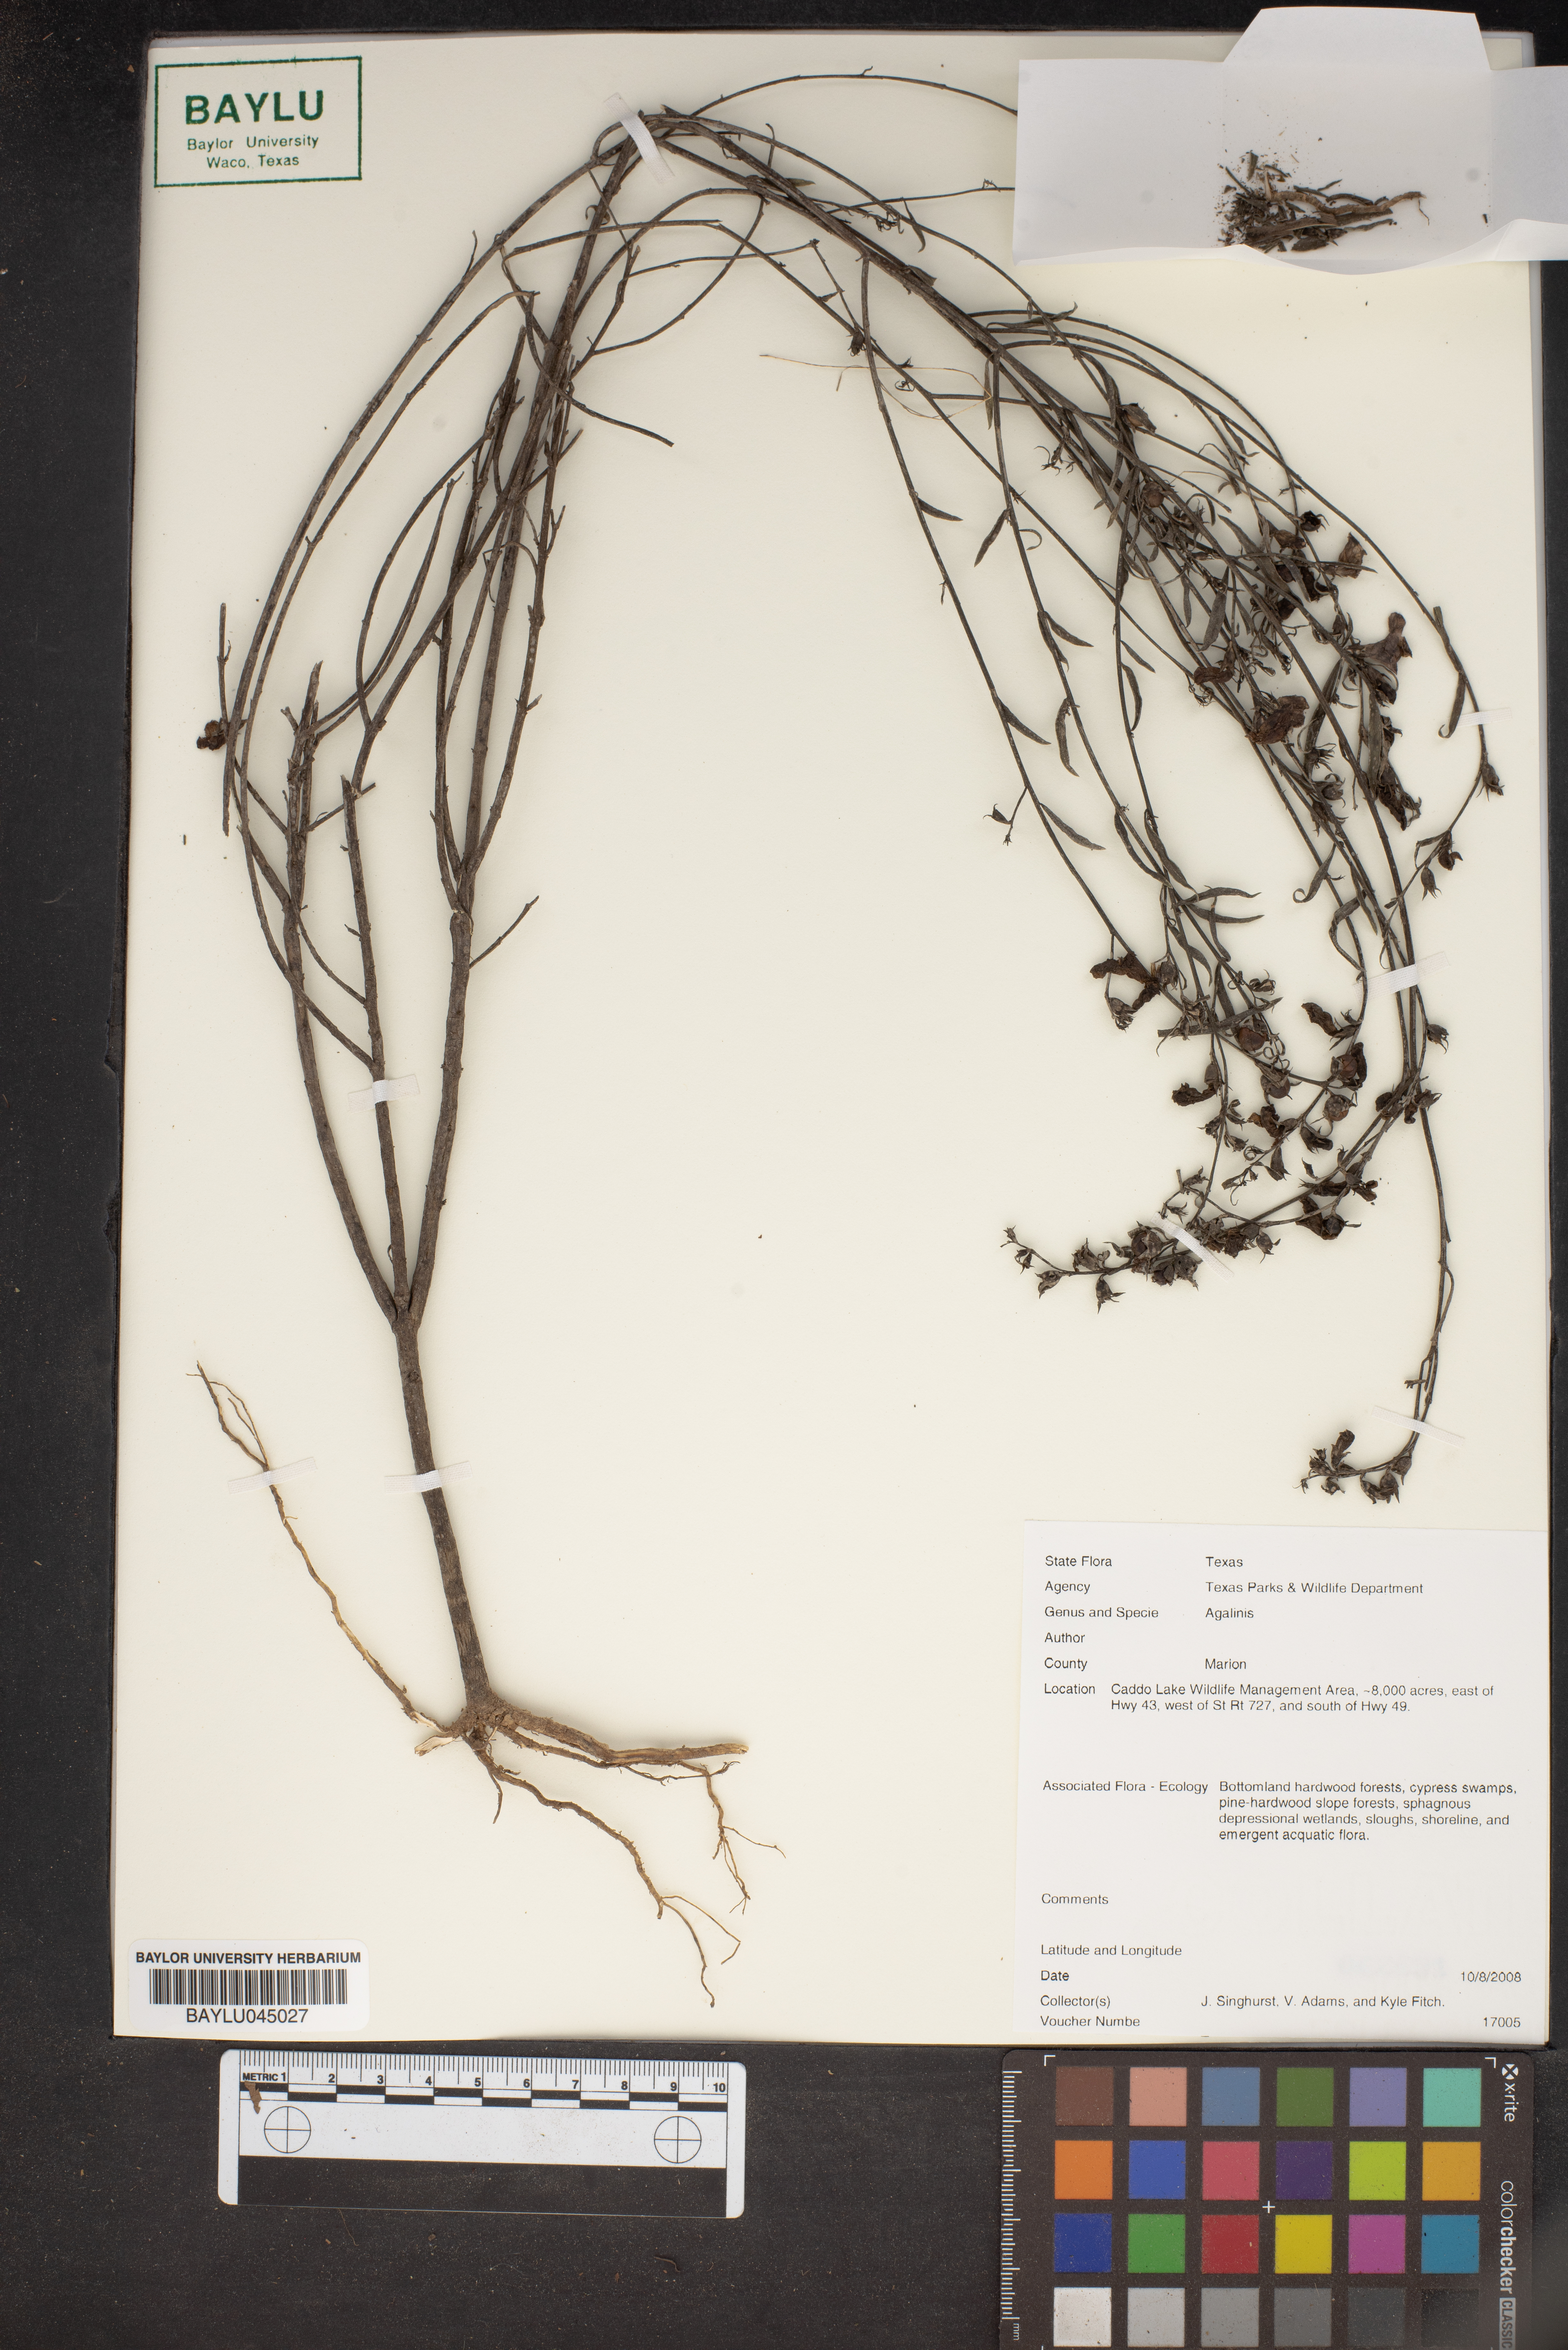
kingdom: Plantae
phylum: Tracheophyta
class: Magnoliopsida
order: Lamiales
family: Orobanchaceae
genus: Agalinis
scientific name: Agalinis
